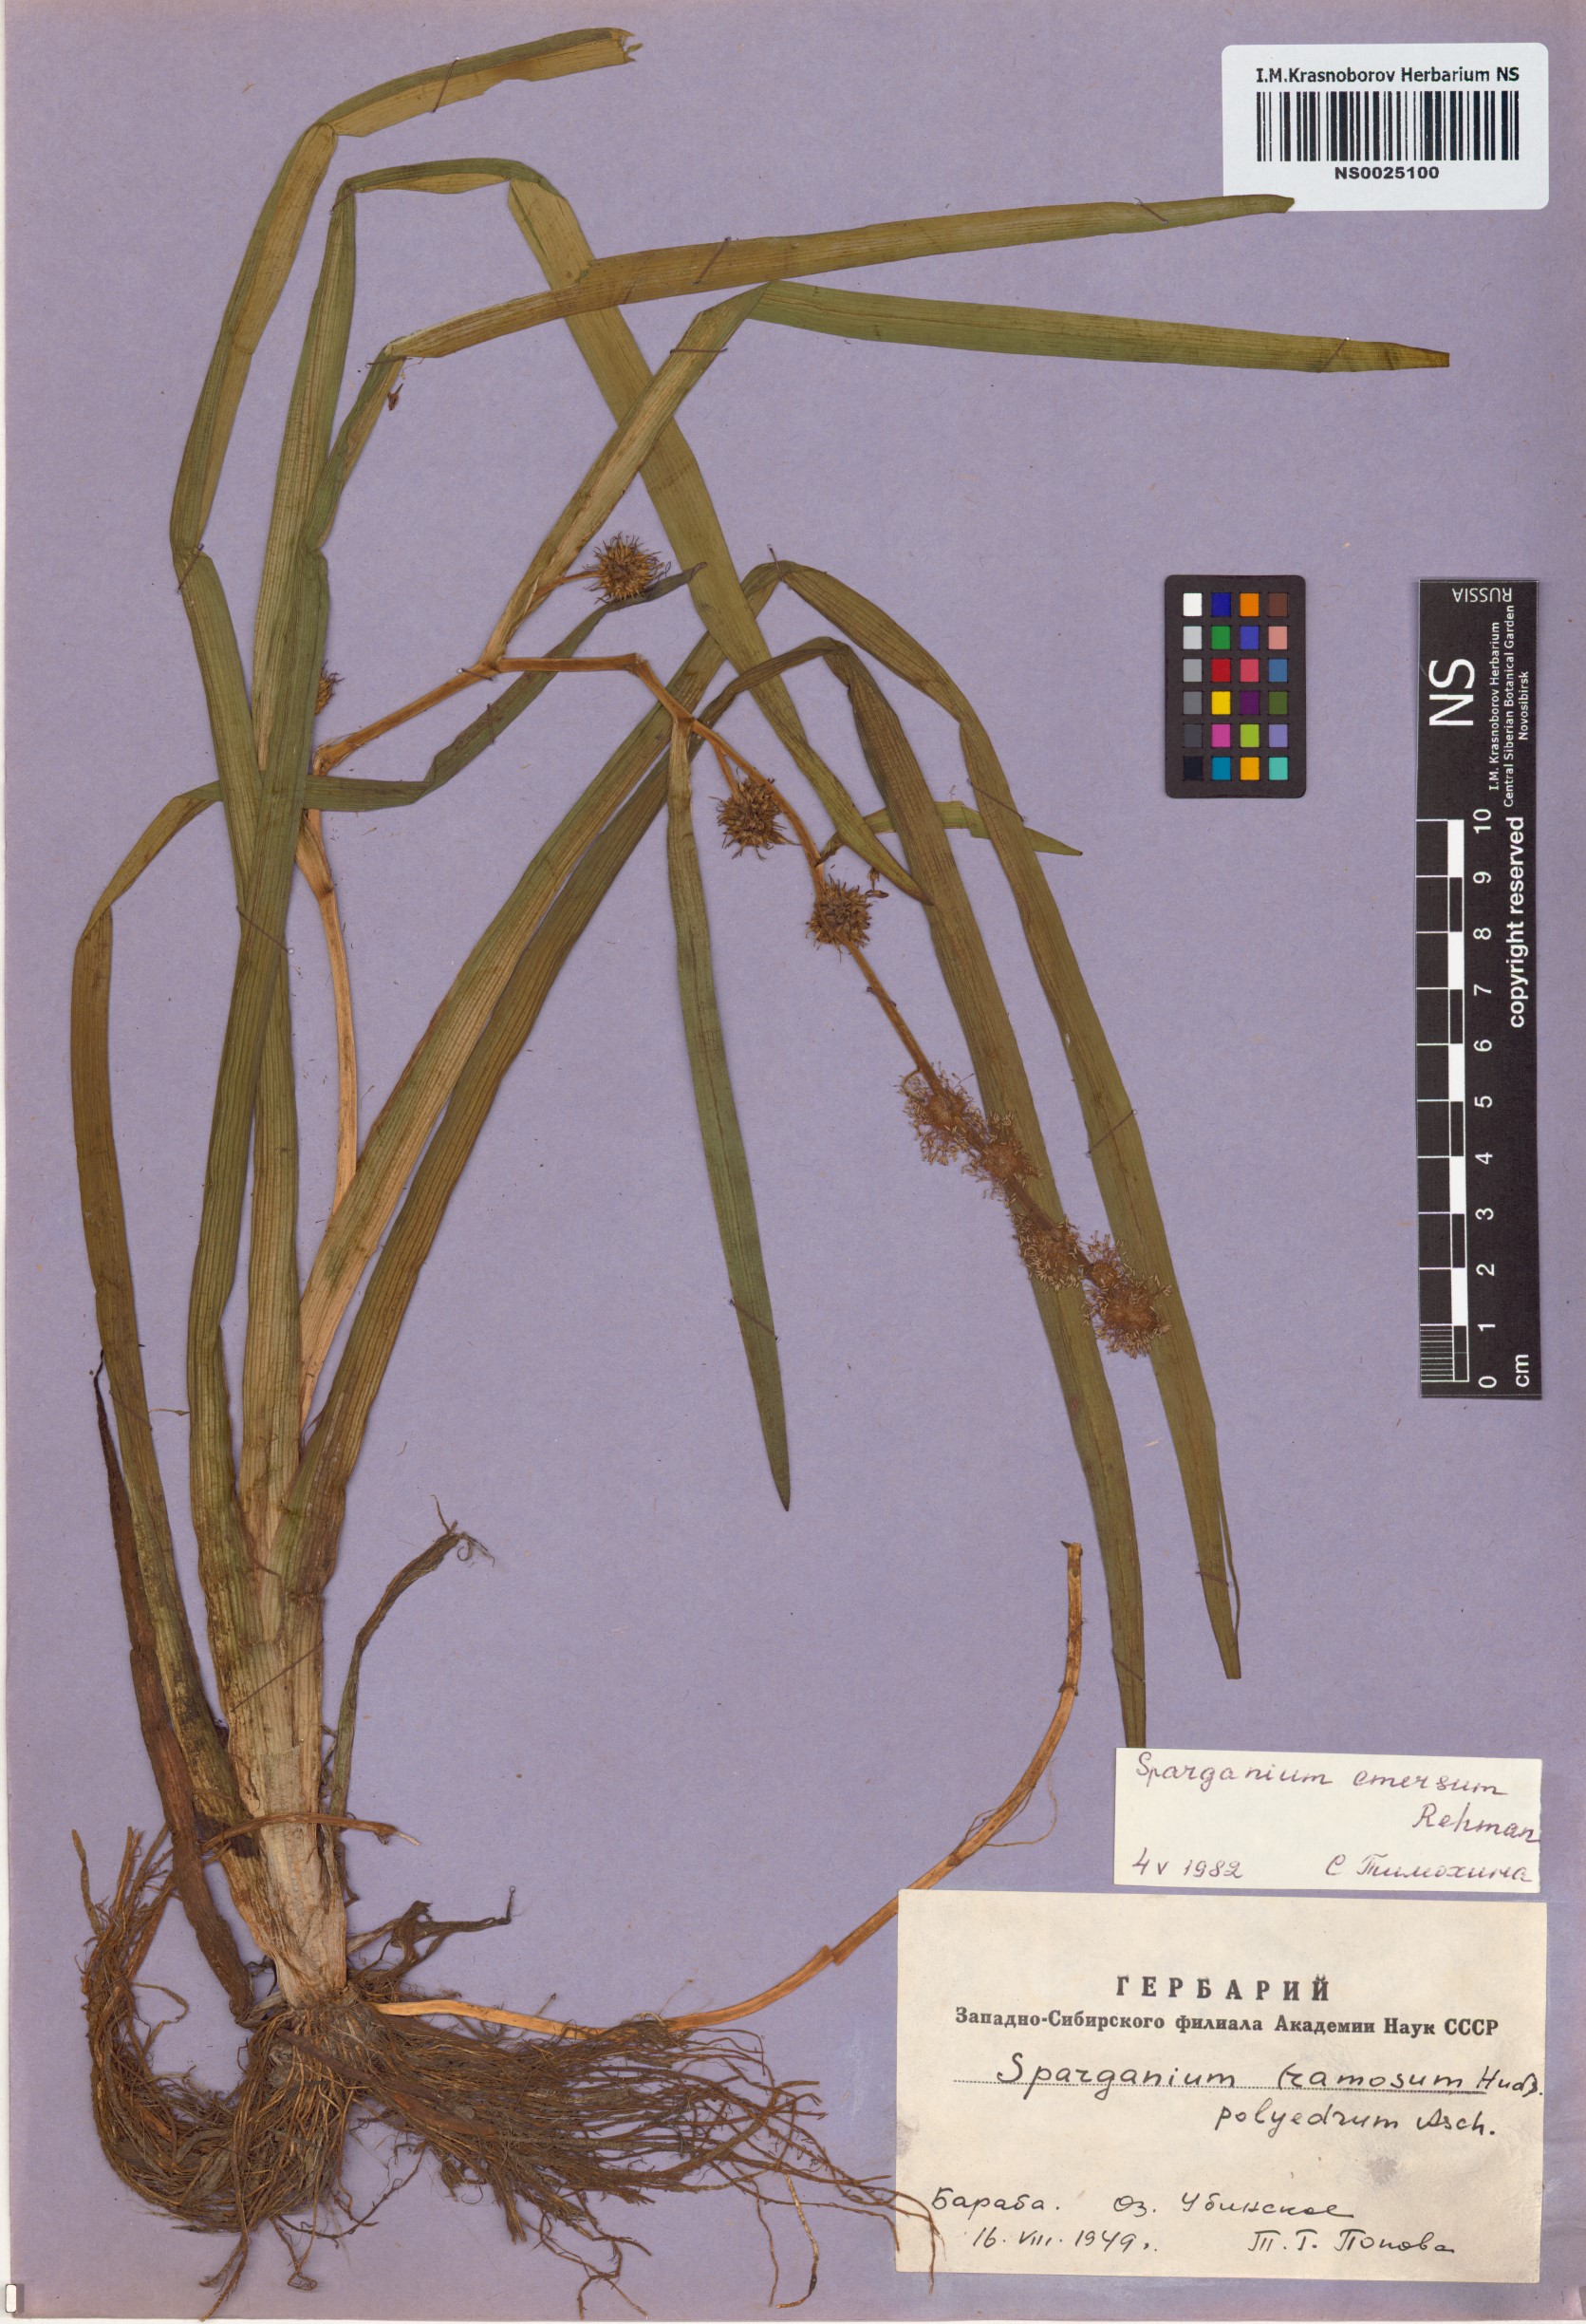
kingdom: Plantae
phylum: Tracheophyta
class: Liliopsida
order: Poales
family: Typhaceae
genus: Sparganium
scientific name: Sparganium emersum
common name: Unbranched bur-reed
